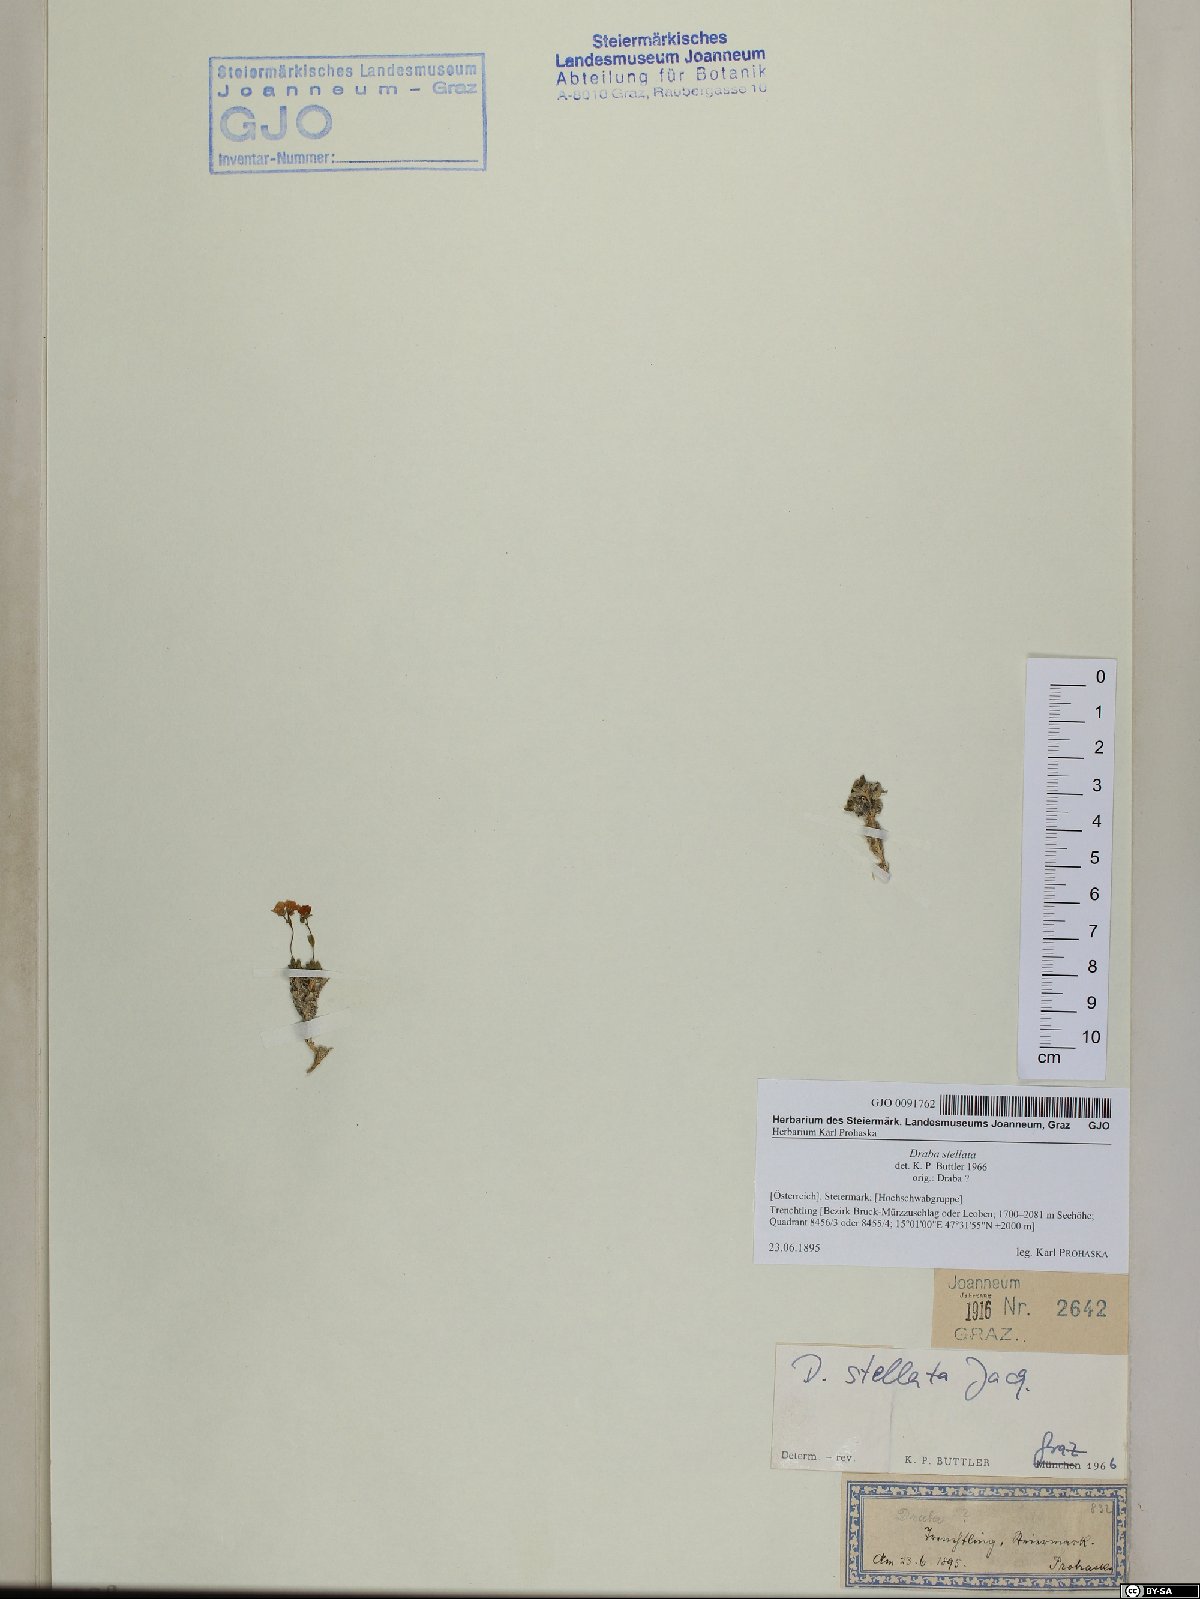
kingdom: Plantae
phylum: Tracheophyta
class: Magnoliopsida
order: Brassicales
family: Brassicaceae
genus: Draba
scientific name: Draba stellata
